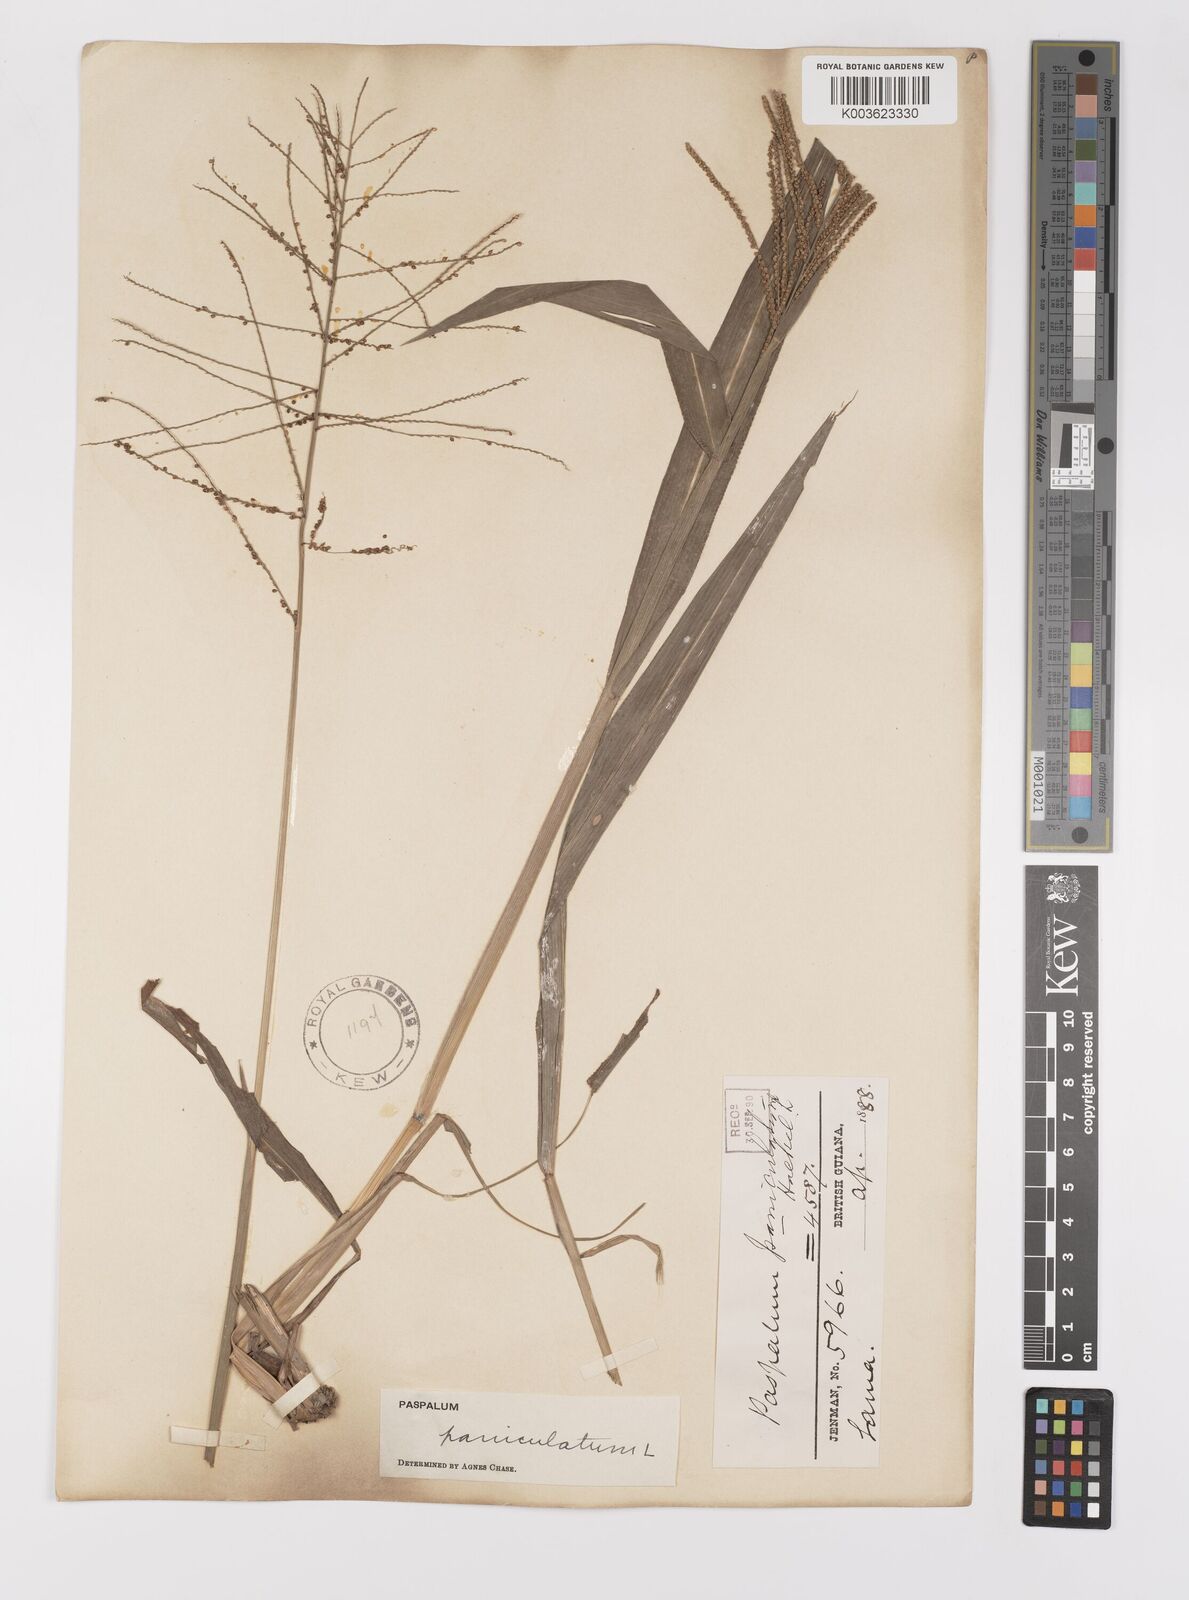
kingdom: Plantae
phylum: Tracheophyta
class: Liliopsida
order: Poales
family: Poaceae
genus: Paspalum
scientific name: Paspalum paniculatum
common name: Arrocillo
